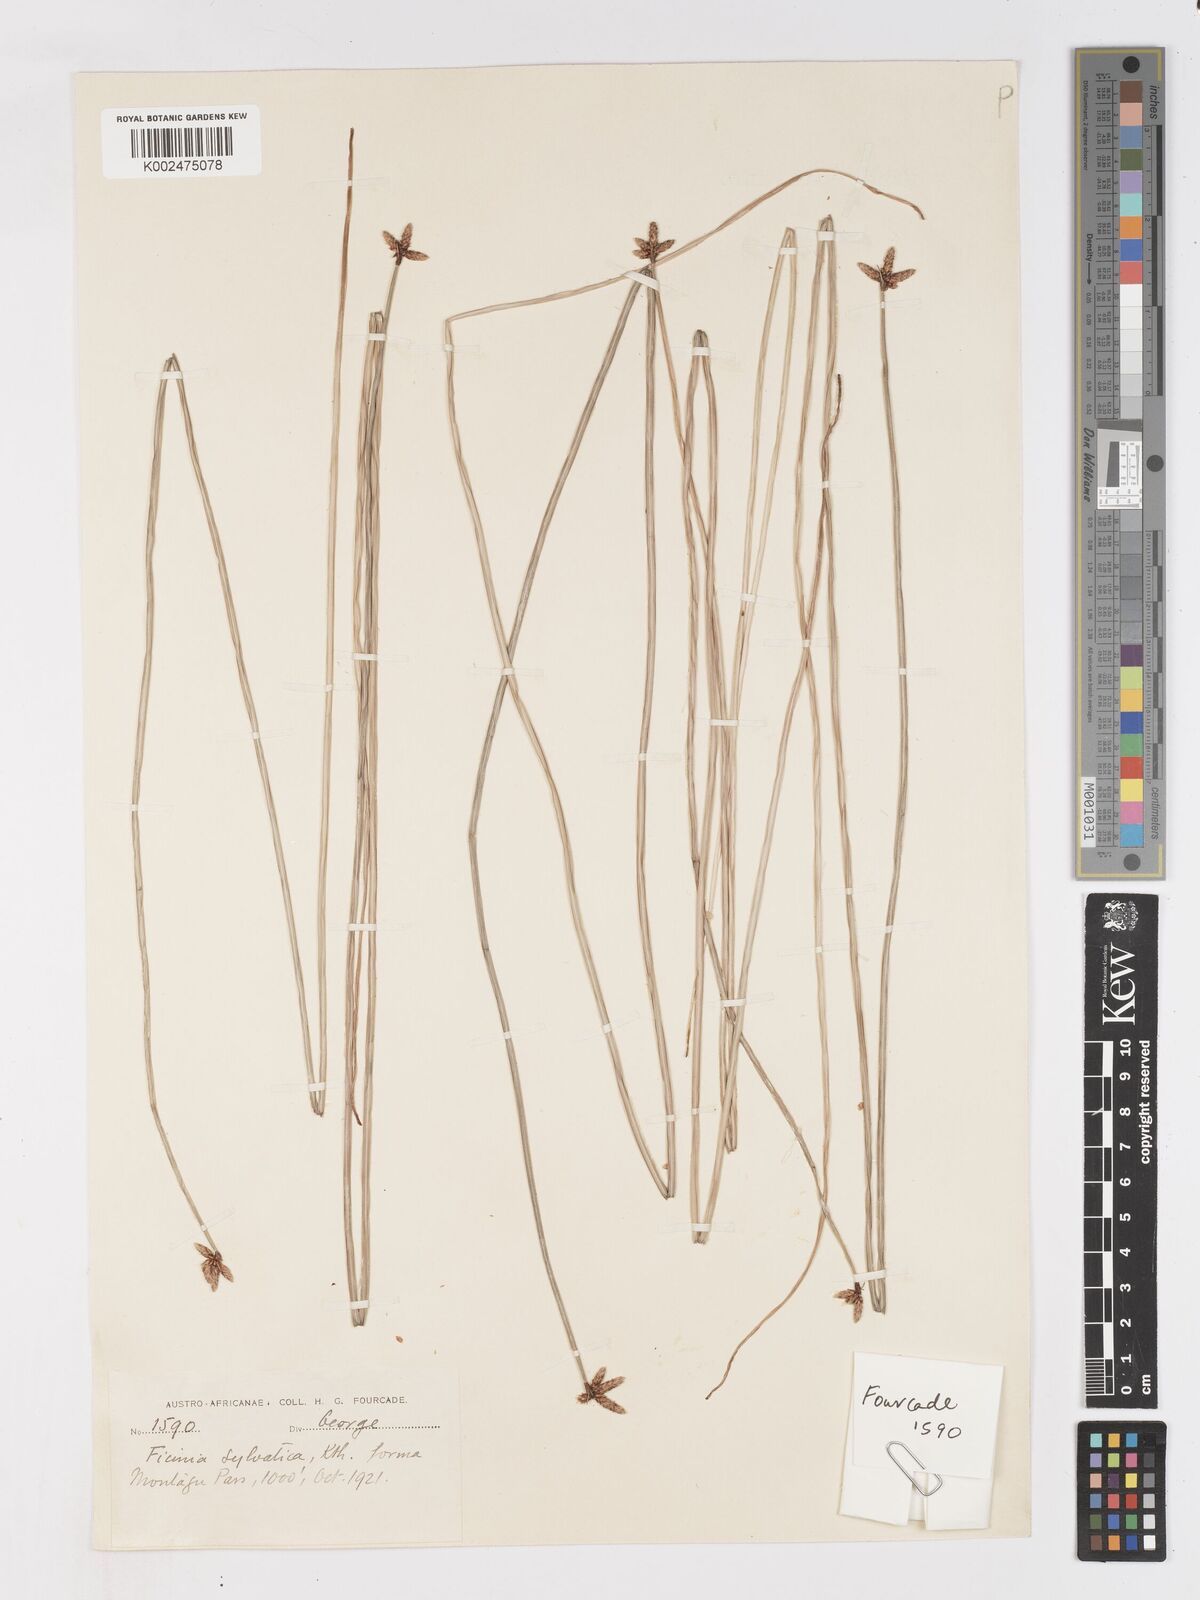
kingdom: Plantae
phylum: Tracheophyta
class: Liliopsida
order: Poales
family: Cyperaceae
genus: Ficinia
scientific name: Ficinia sylvatica
